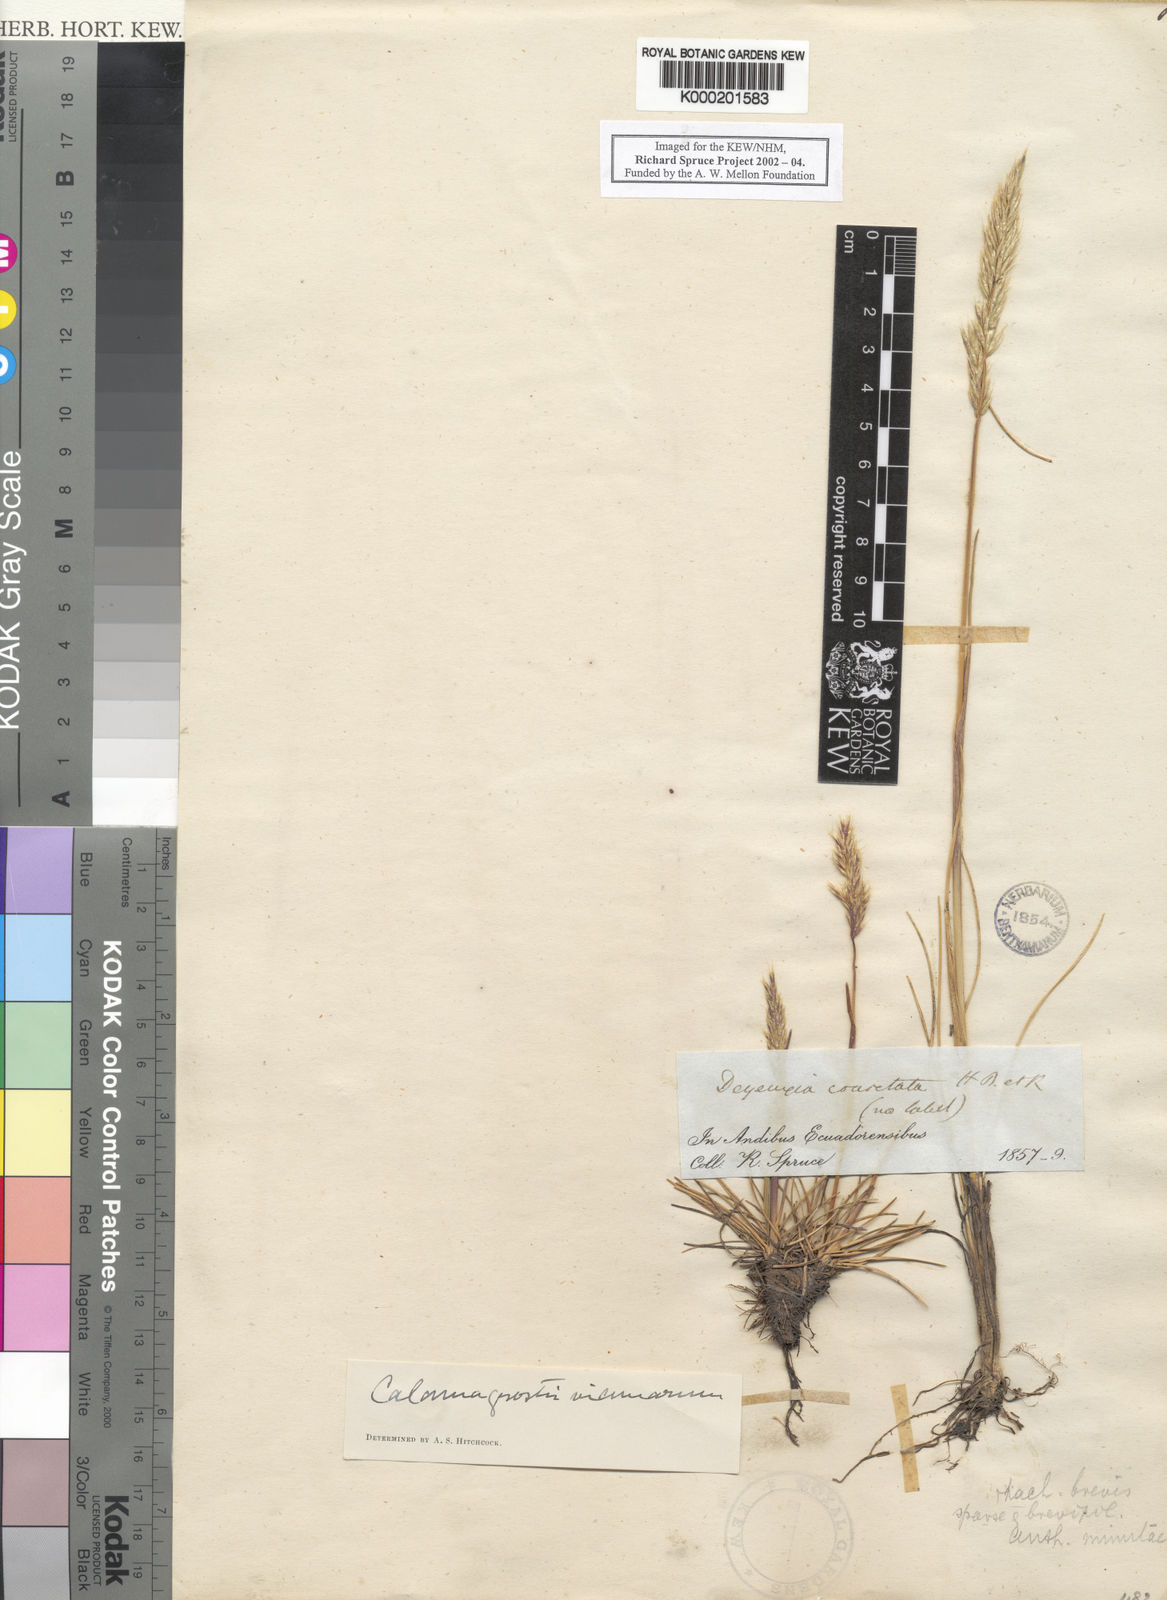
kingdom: Plantae
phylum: Tracheophyta
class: Liliopsida
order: Poales
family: Poaceae
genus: Cinnagrostis
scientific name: Cinnagrostis vicunarum
